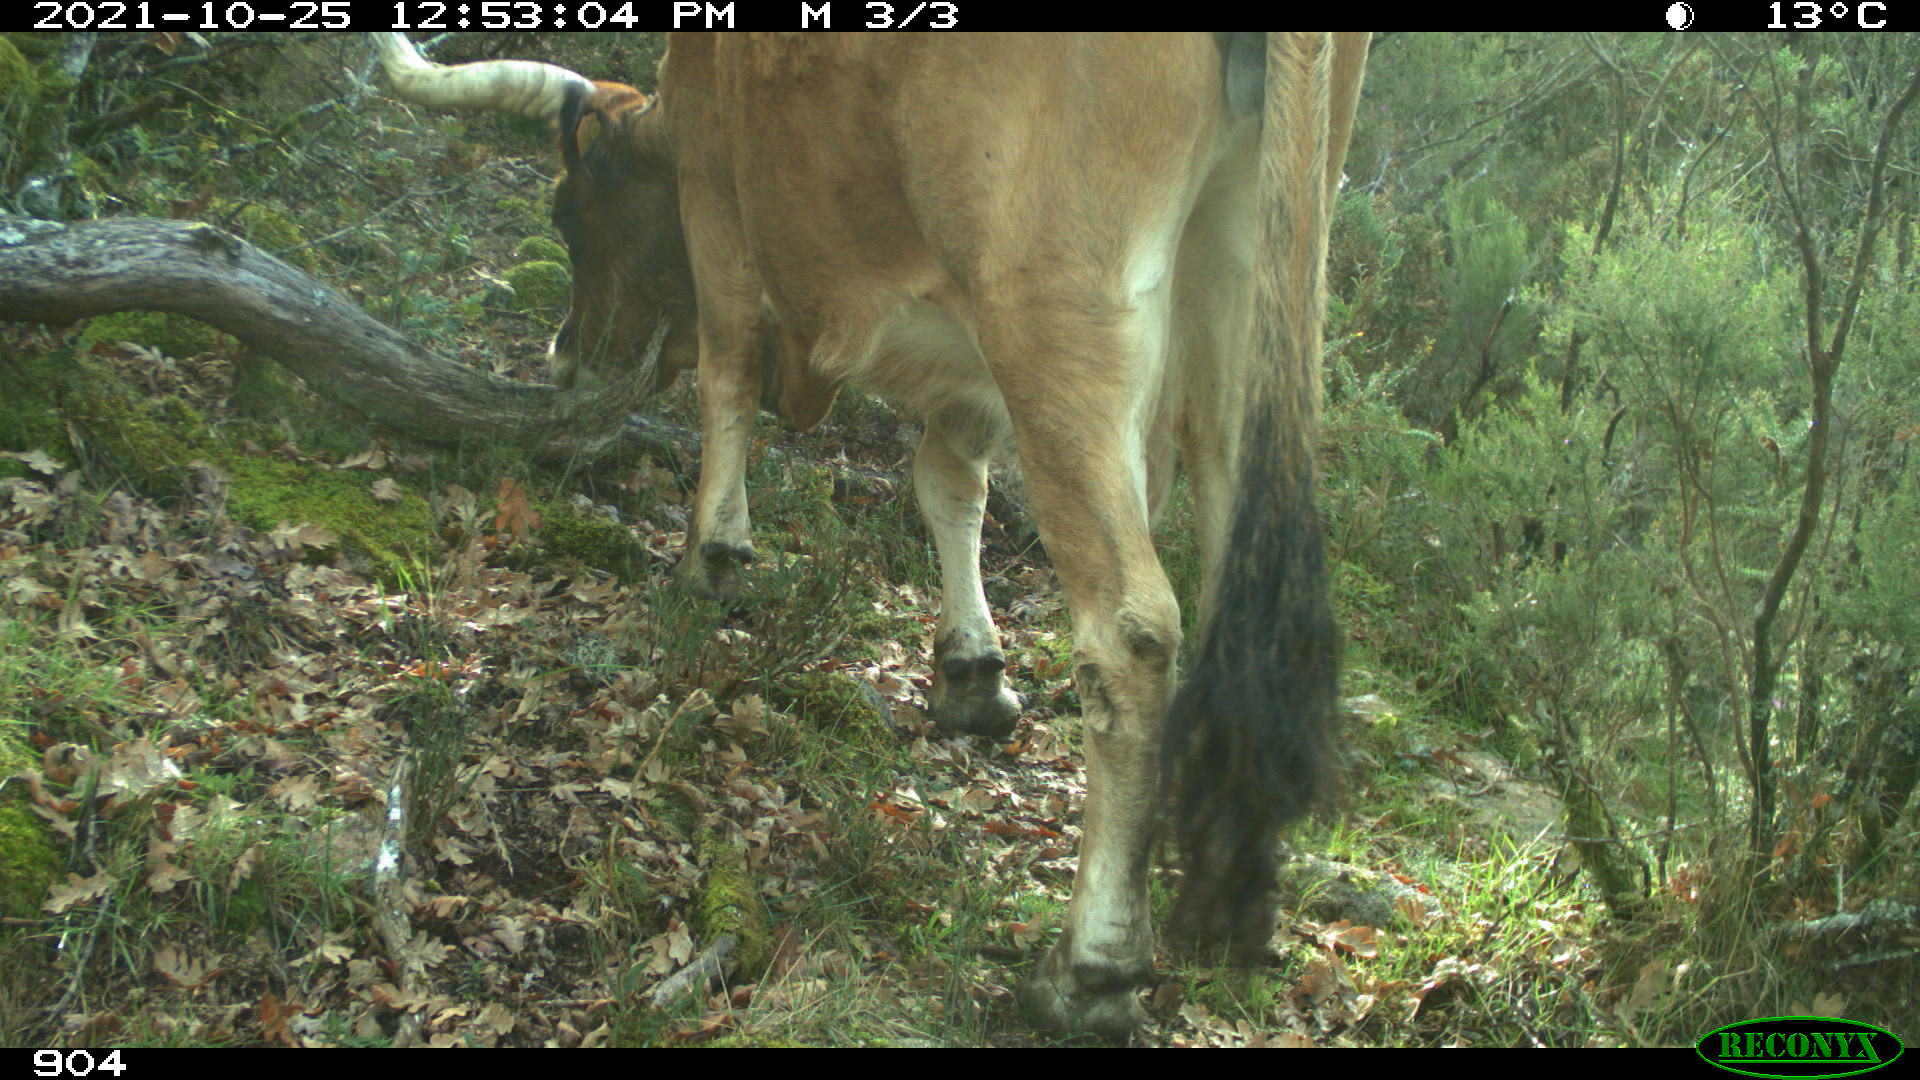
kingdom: Animalia
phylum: Chordata
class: Mammalia
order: Artiodactyla
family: Bovidae
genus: Bos
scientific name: Bos taurus
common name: Domesticated cattle
